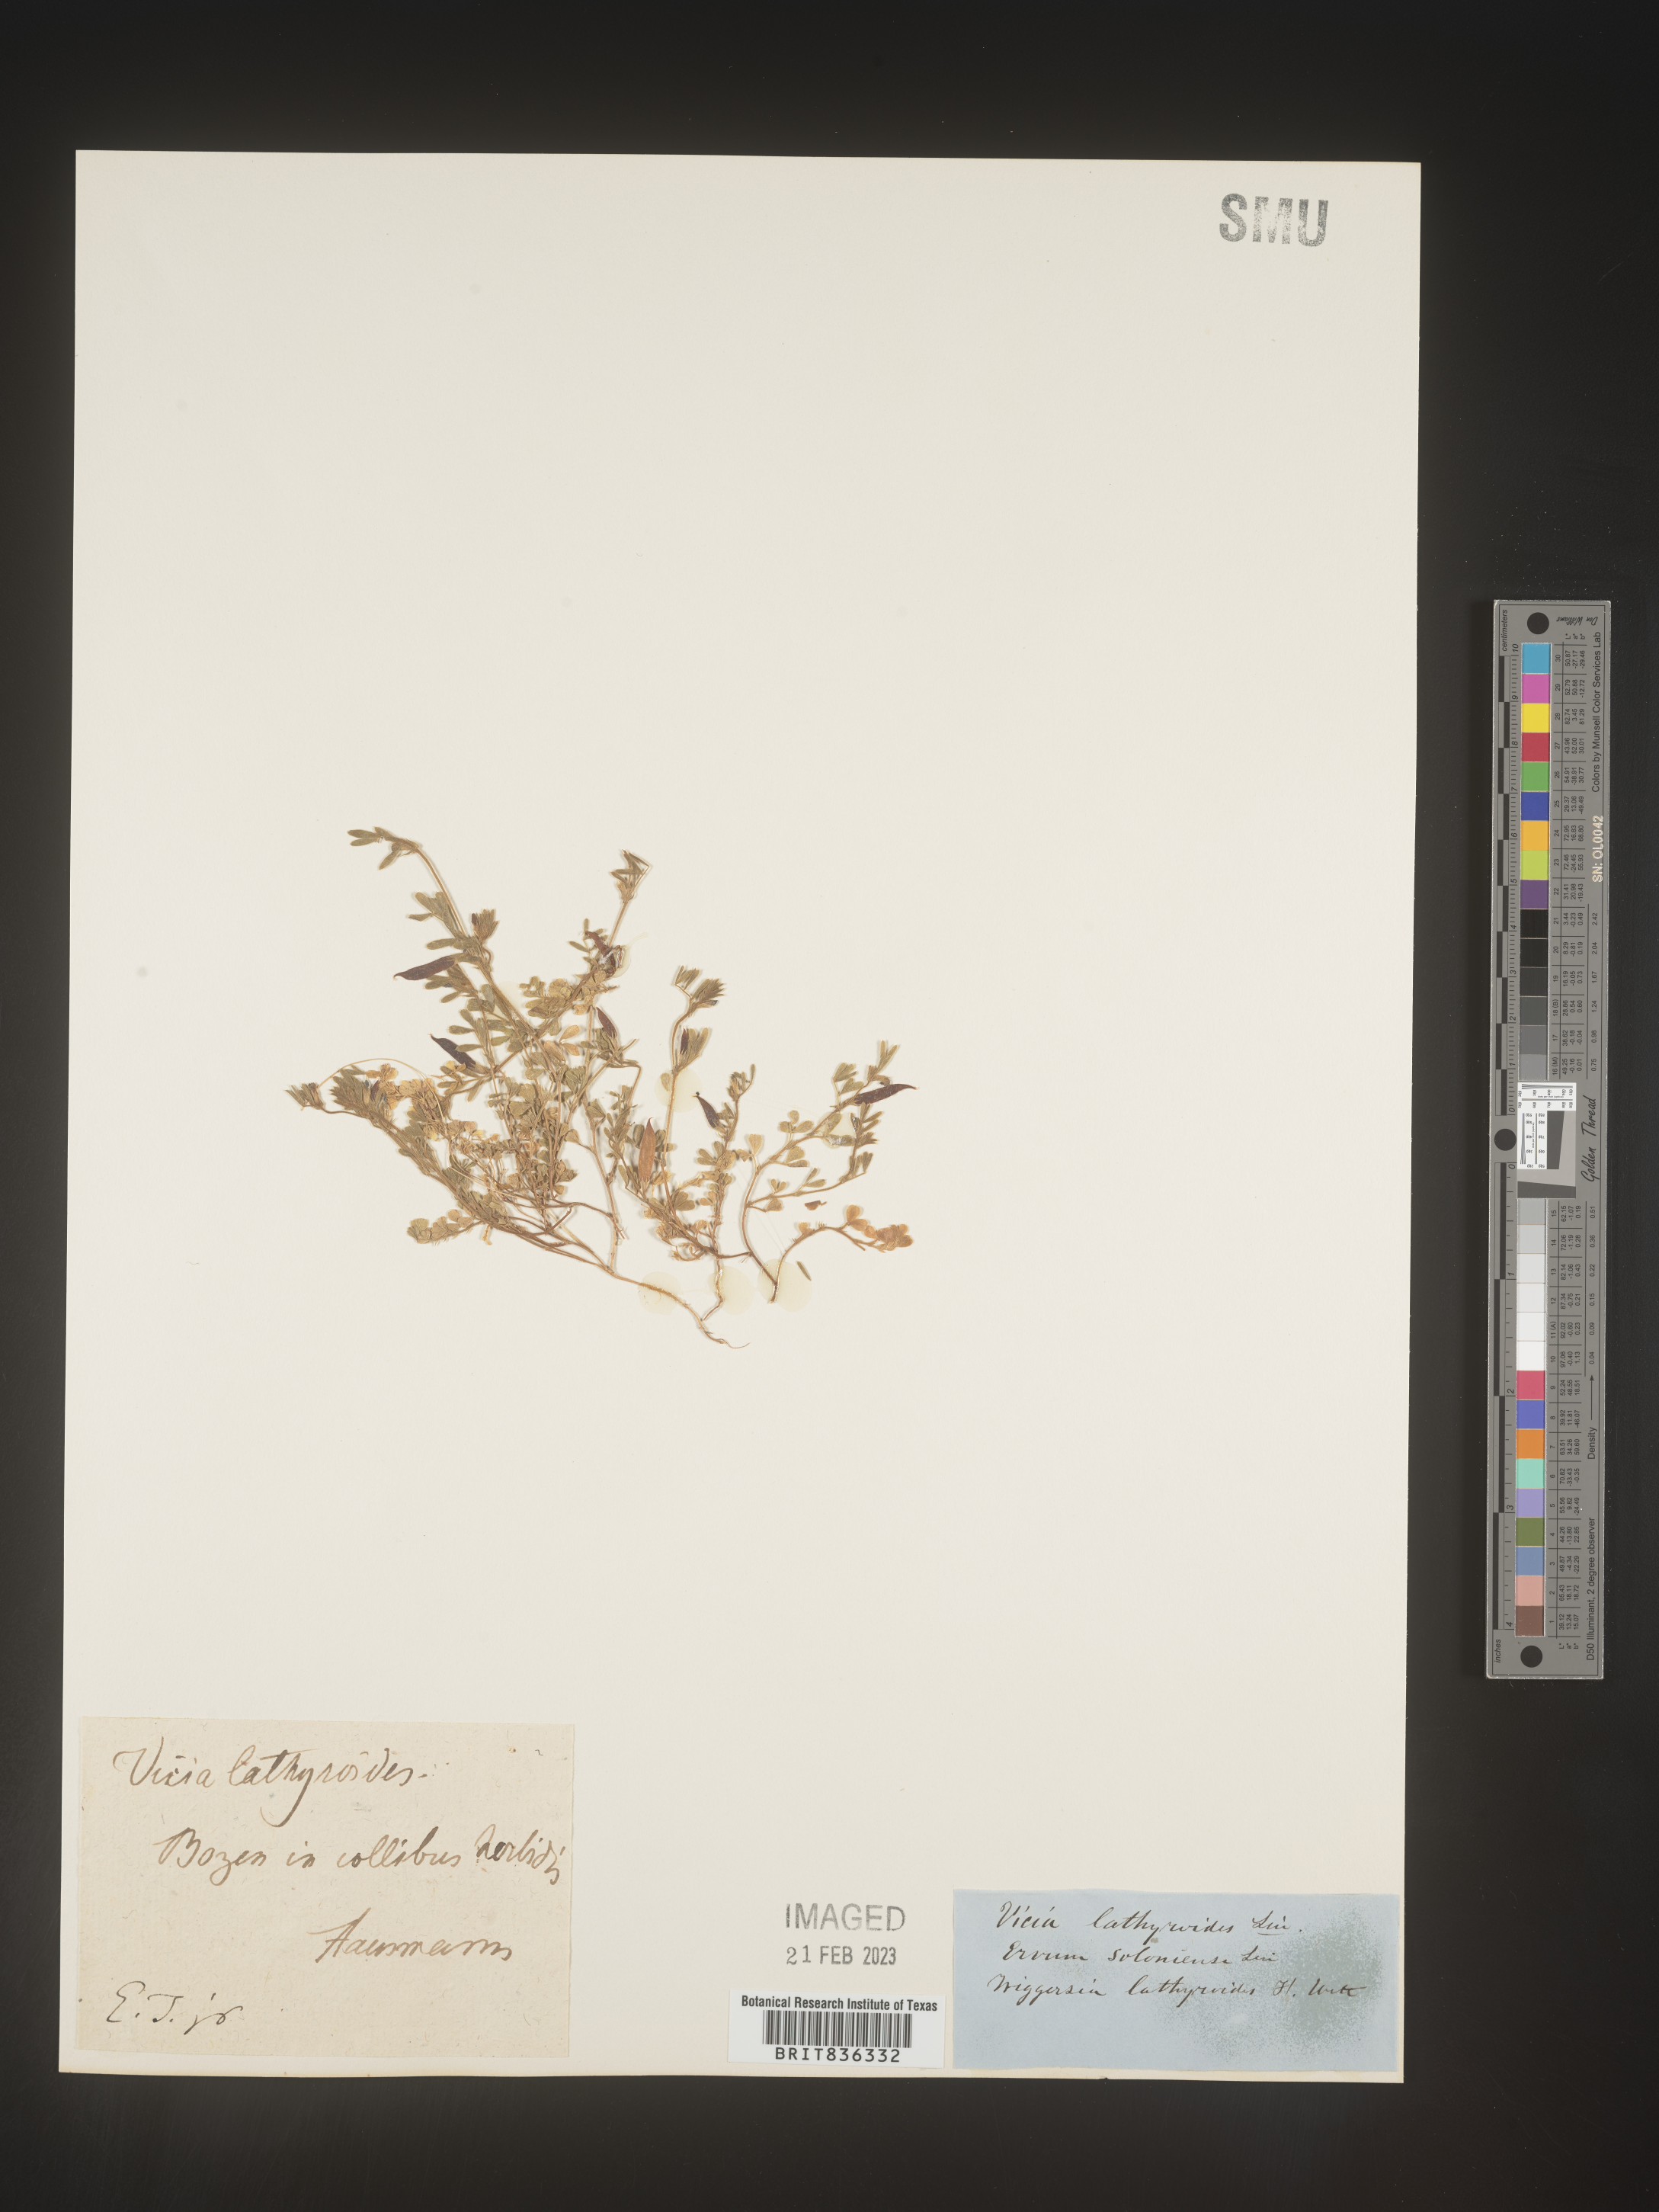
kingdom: Plantae
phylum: Tracheophyta
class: Magnoliopsida
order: Fabales
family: Fabaceae
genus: Vicia
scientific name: Vicia
